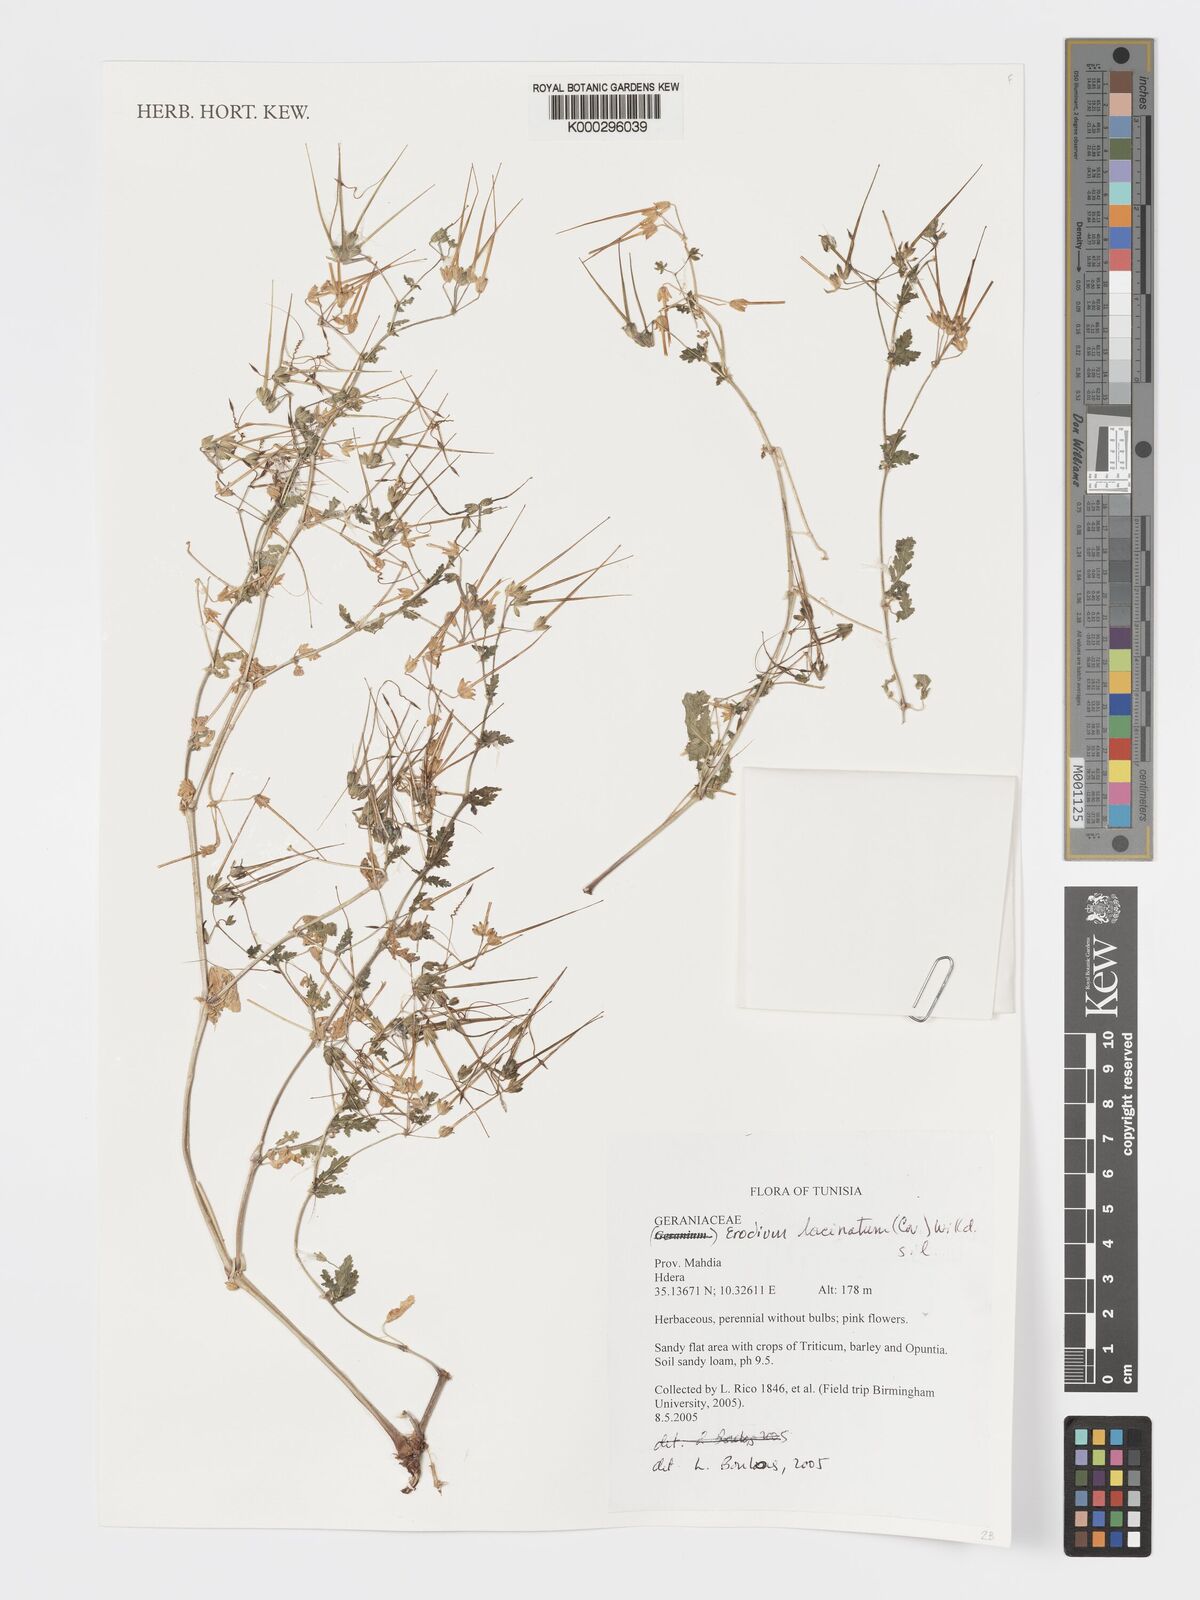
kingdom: Plantae
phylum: Tracheophyta
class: Magnoliopsida
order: Geraniales
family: Geraniaceae
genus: Erodium
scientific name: Erodium
